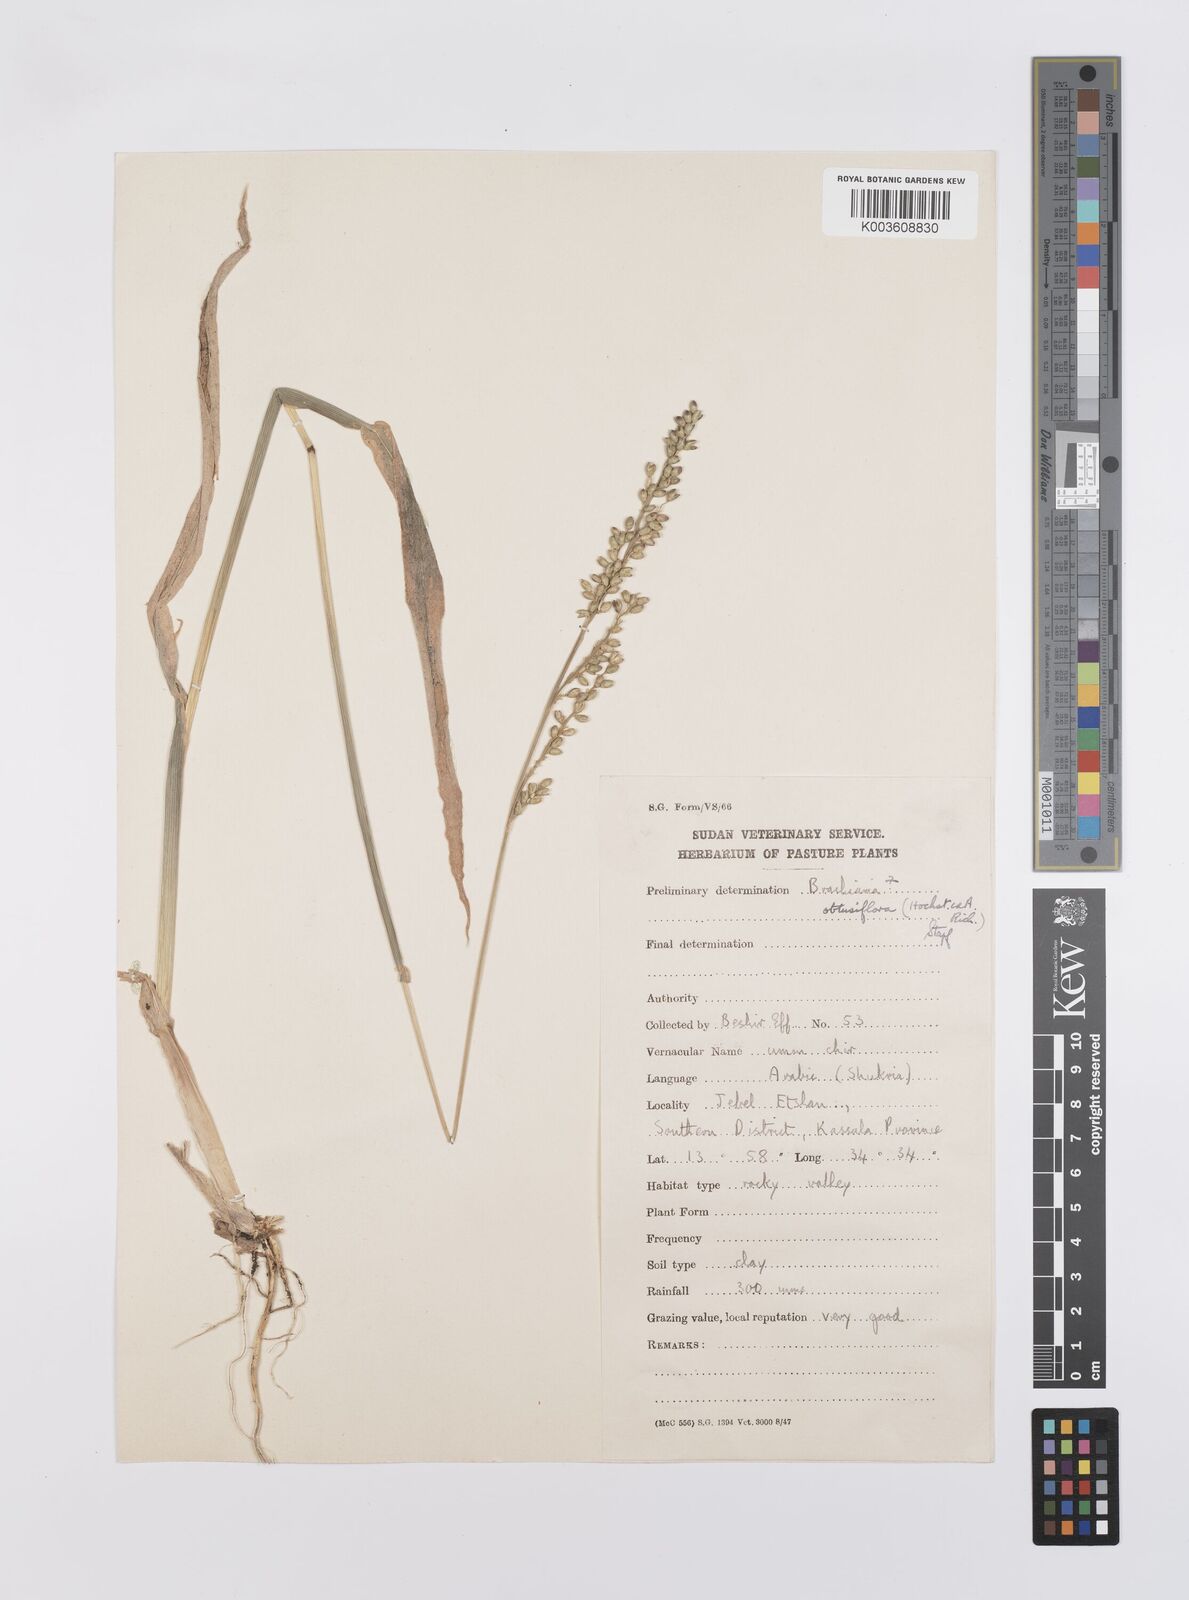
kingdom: Plantae
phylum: Tracheophyta
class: Liliopsida
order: Poales
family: Poaceae
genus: Echinochloa
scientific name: Echinochloa rotundiflora
